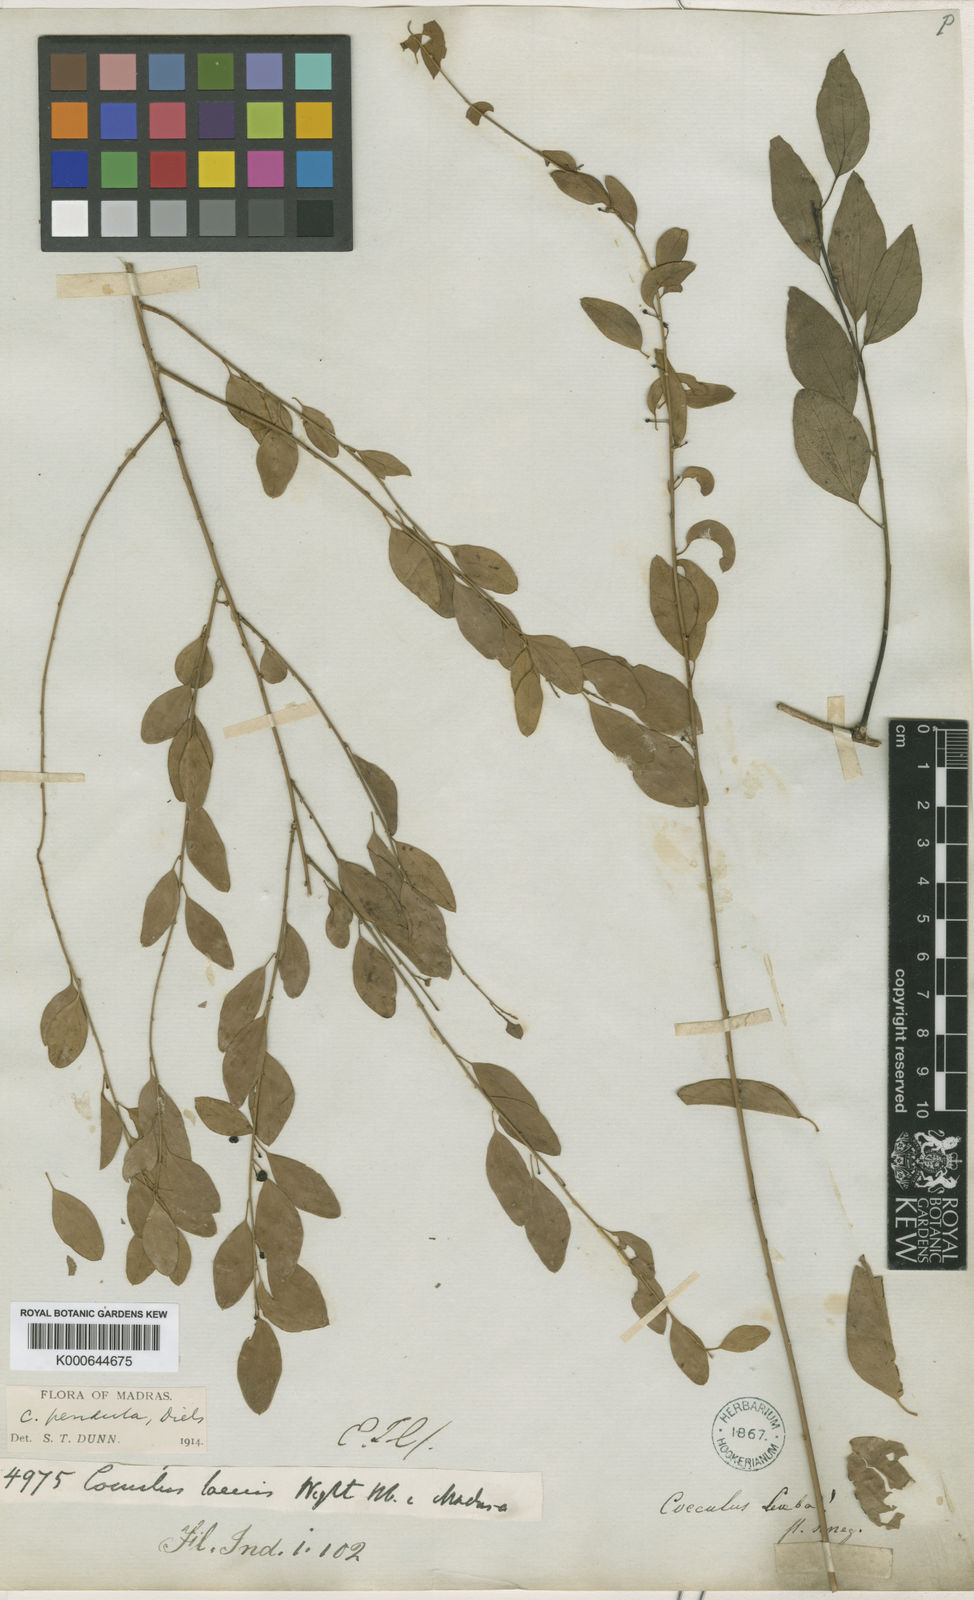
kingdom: Plantae
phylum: Tracheophyta
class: Magnoliopsida
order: Ranunculales
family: Menispermaceae
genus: Cocculus
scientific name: Cocculus
